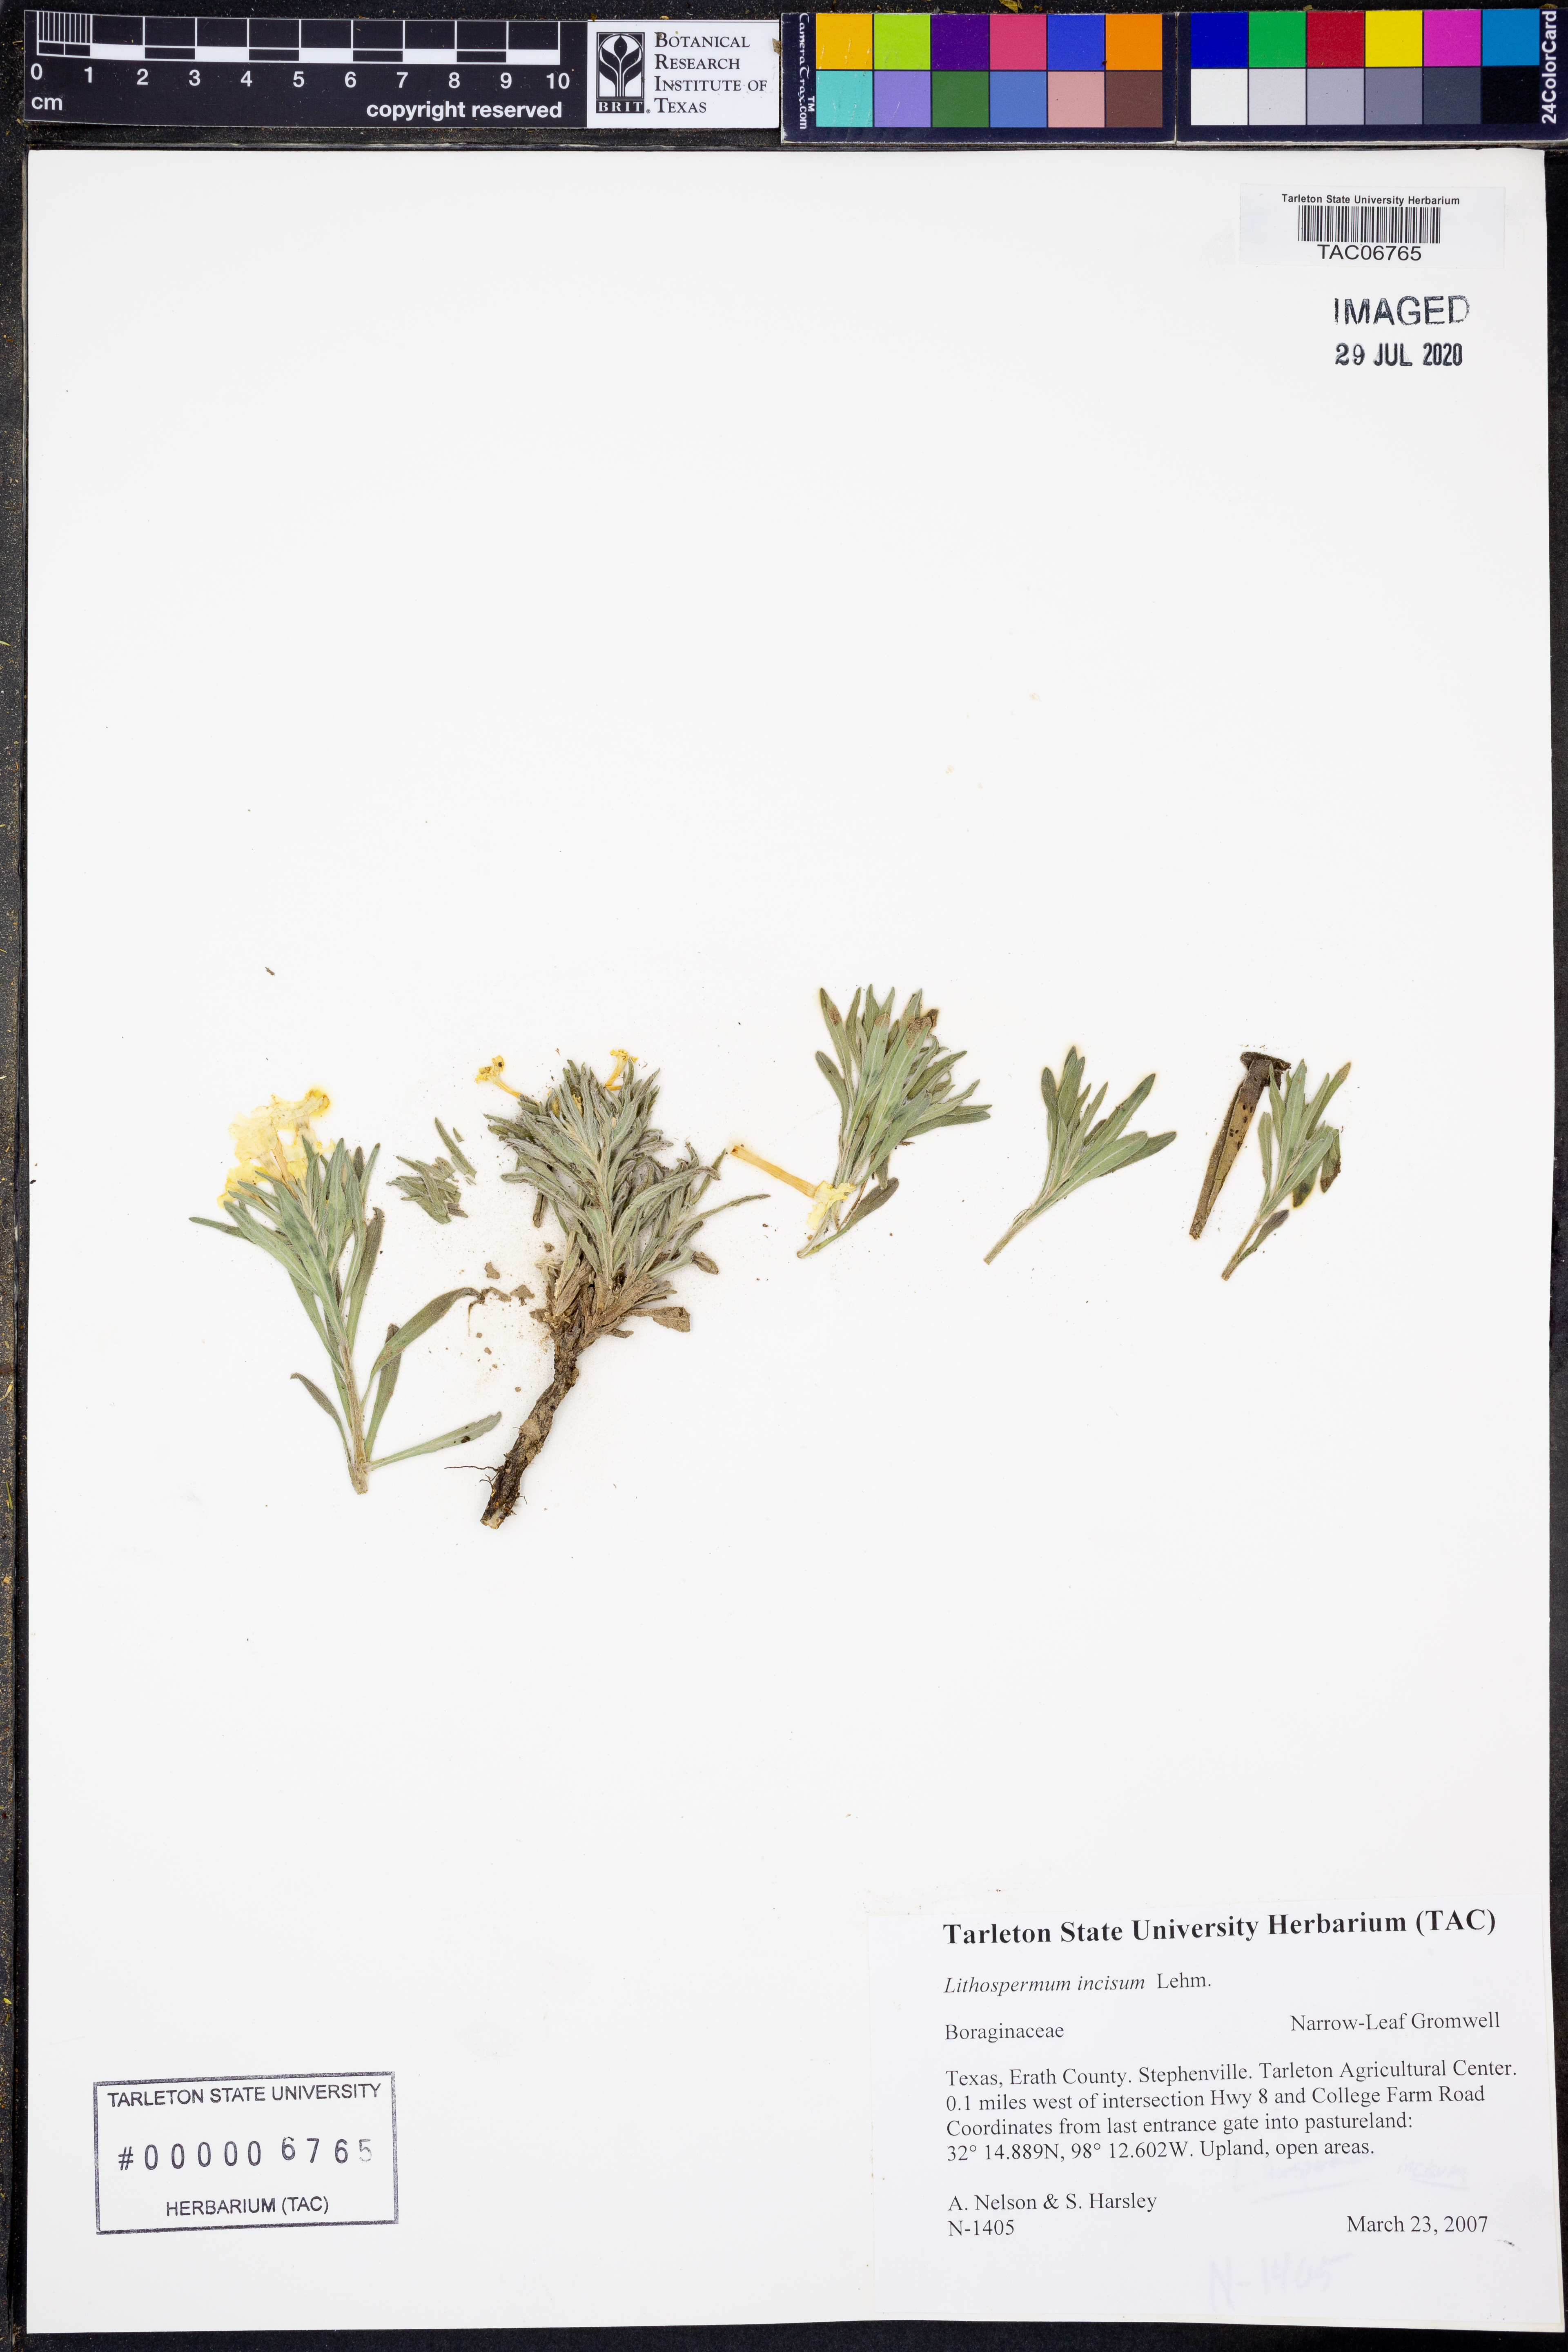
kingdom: Plantae
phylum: Tracheophyta
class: Magnoliopsida
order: Boraginales
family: Boraginaceae
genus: Lithospermum
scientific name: Lithospermum incisum
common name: Fringed gromwell
